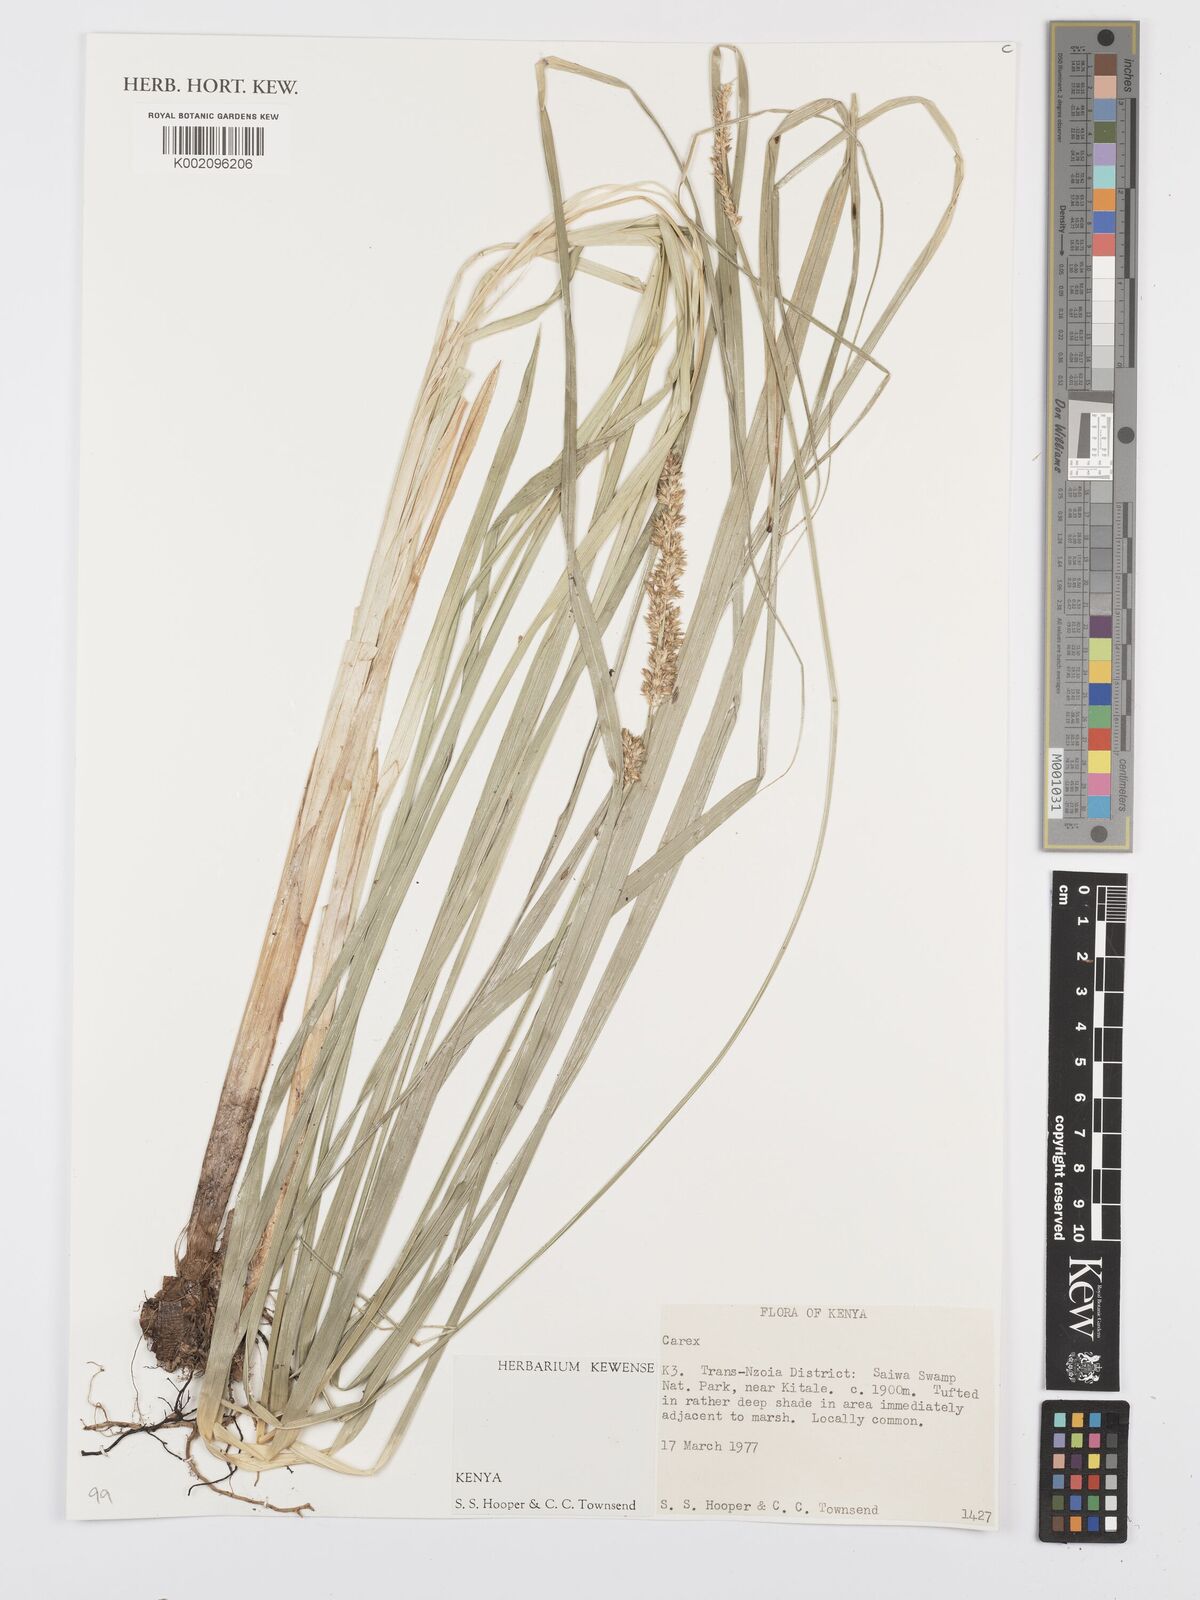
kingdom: Plantae
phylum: Tracheophyta
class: Liliopsida
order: Poales
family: Cyperaceae
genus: Carex
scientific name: Carex
